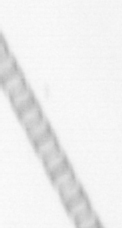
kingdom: Chromista
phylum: Ochrophyta
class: Bacillariophyceae
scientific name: Bacillariophyceae
